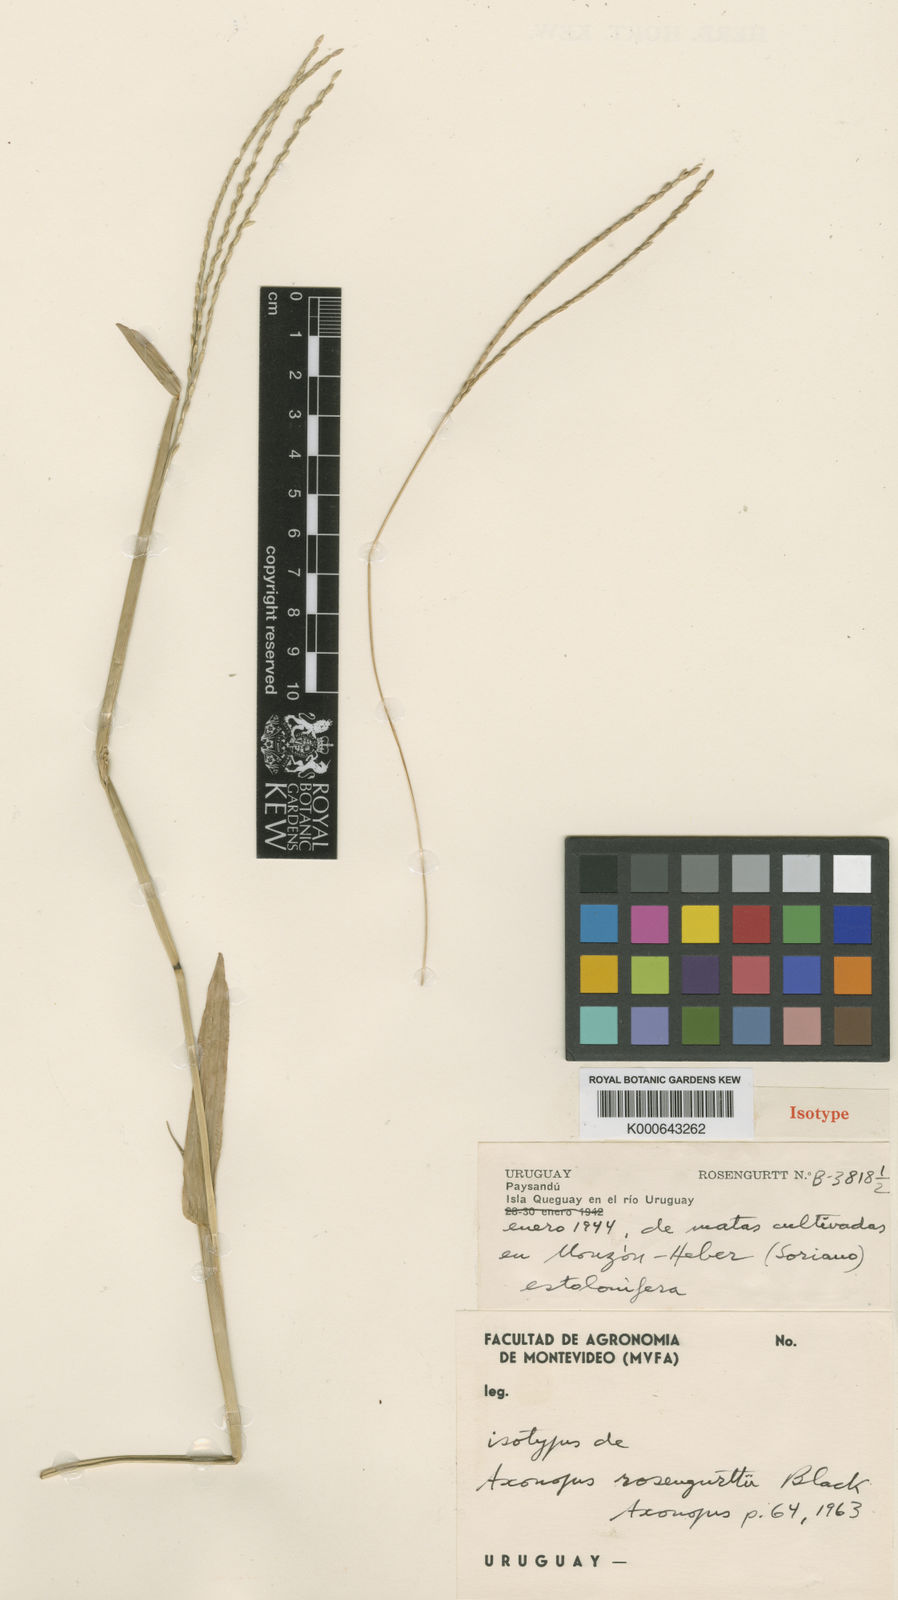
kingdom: Plantae
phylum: Tracheophyta
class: Liliopsida
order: Poales
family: Poaceae
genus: Axonopus
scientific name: Axonopus compressus
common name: American carpet grass
